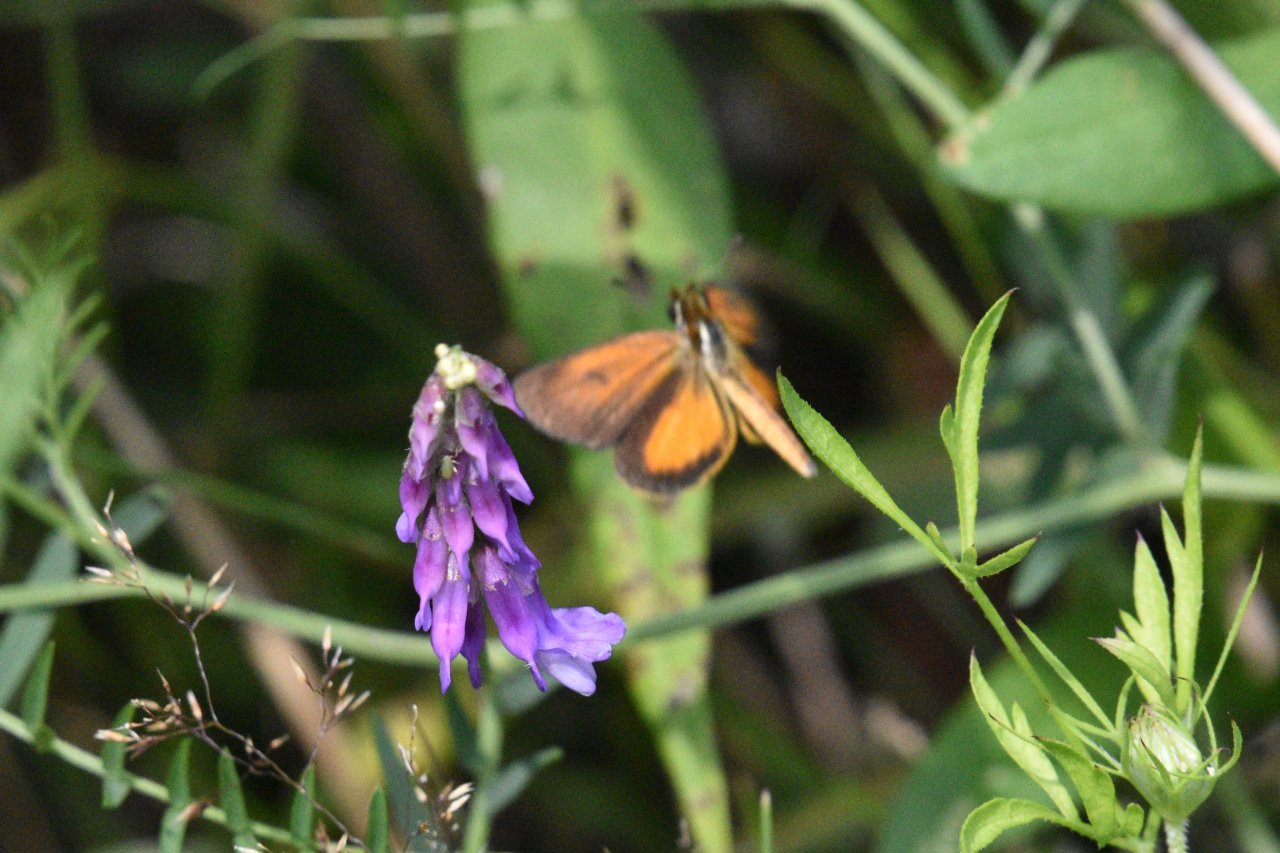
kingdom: Animalia
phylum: Arthropoda
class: Insecta
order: Lepidoptera
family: Hesperiidae
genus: Ancyloxypha
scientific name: Ancyloxypha numitor
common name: Least Skipper
